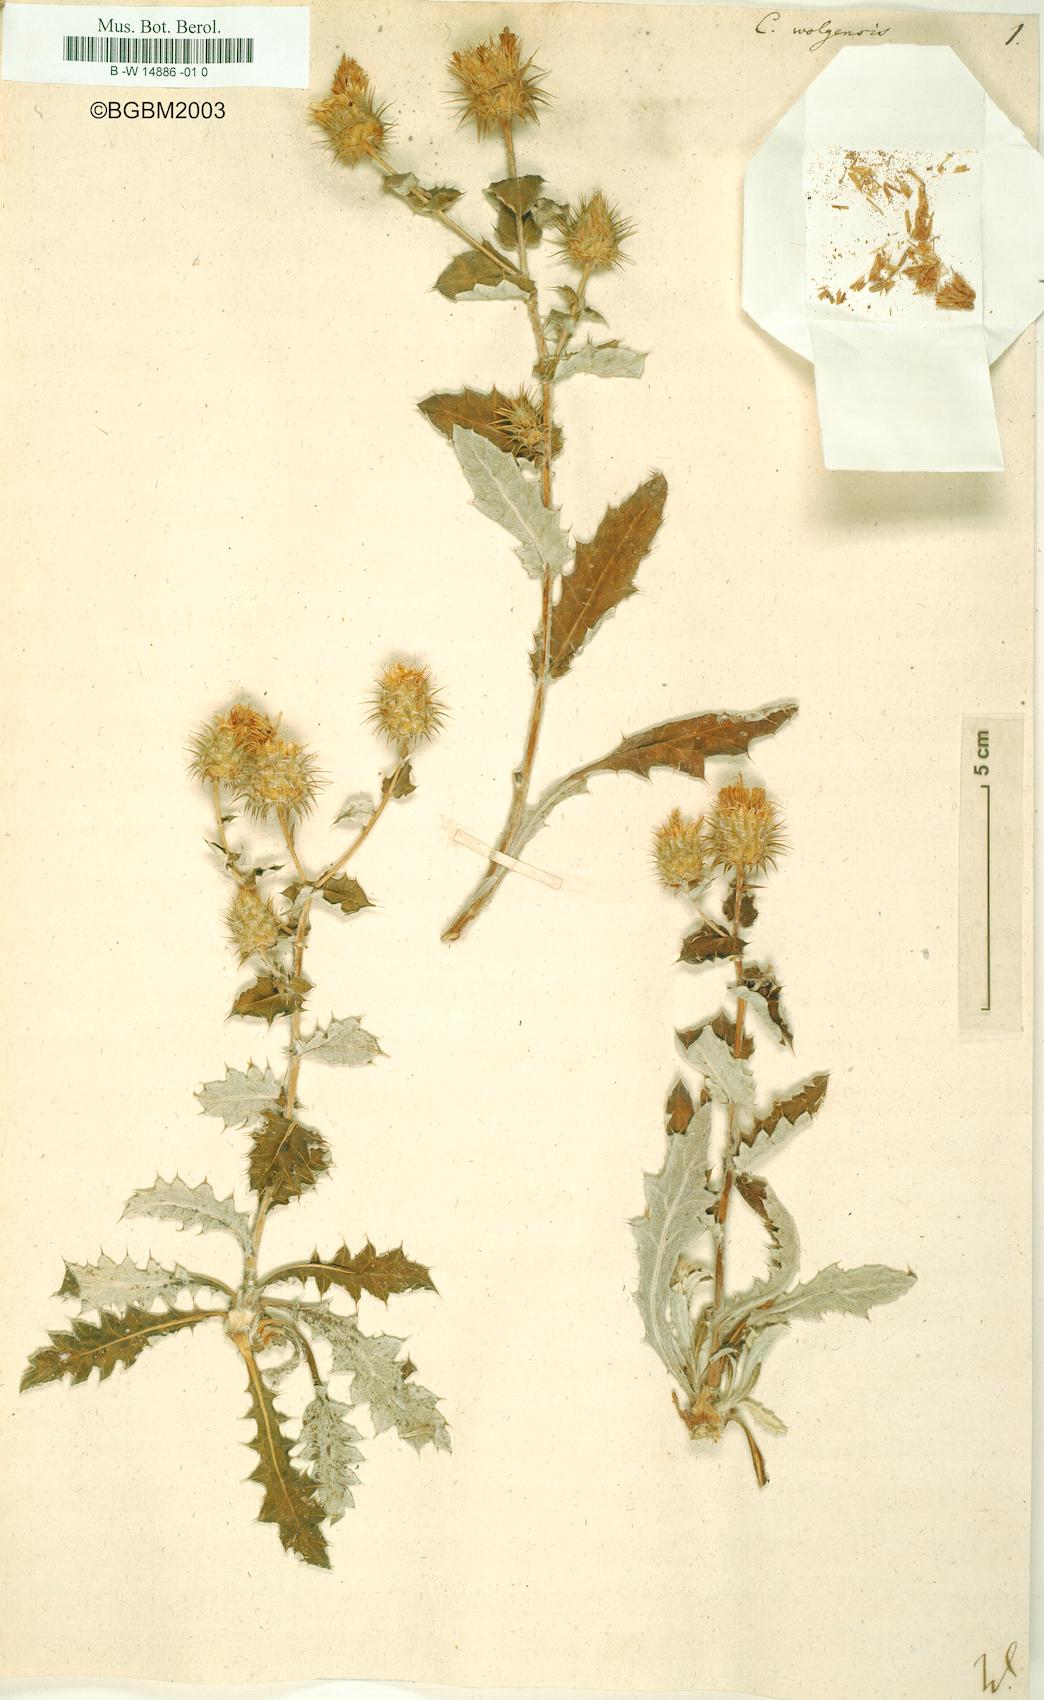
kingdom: Plantae
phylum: Tracheophyta
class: Magnoliopsida
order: Asterales
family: Asteraceae
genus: Carduus
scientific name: Carduus
